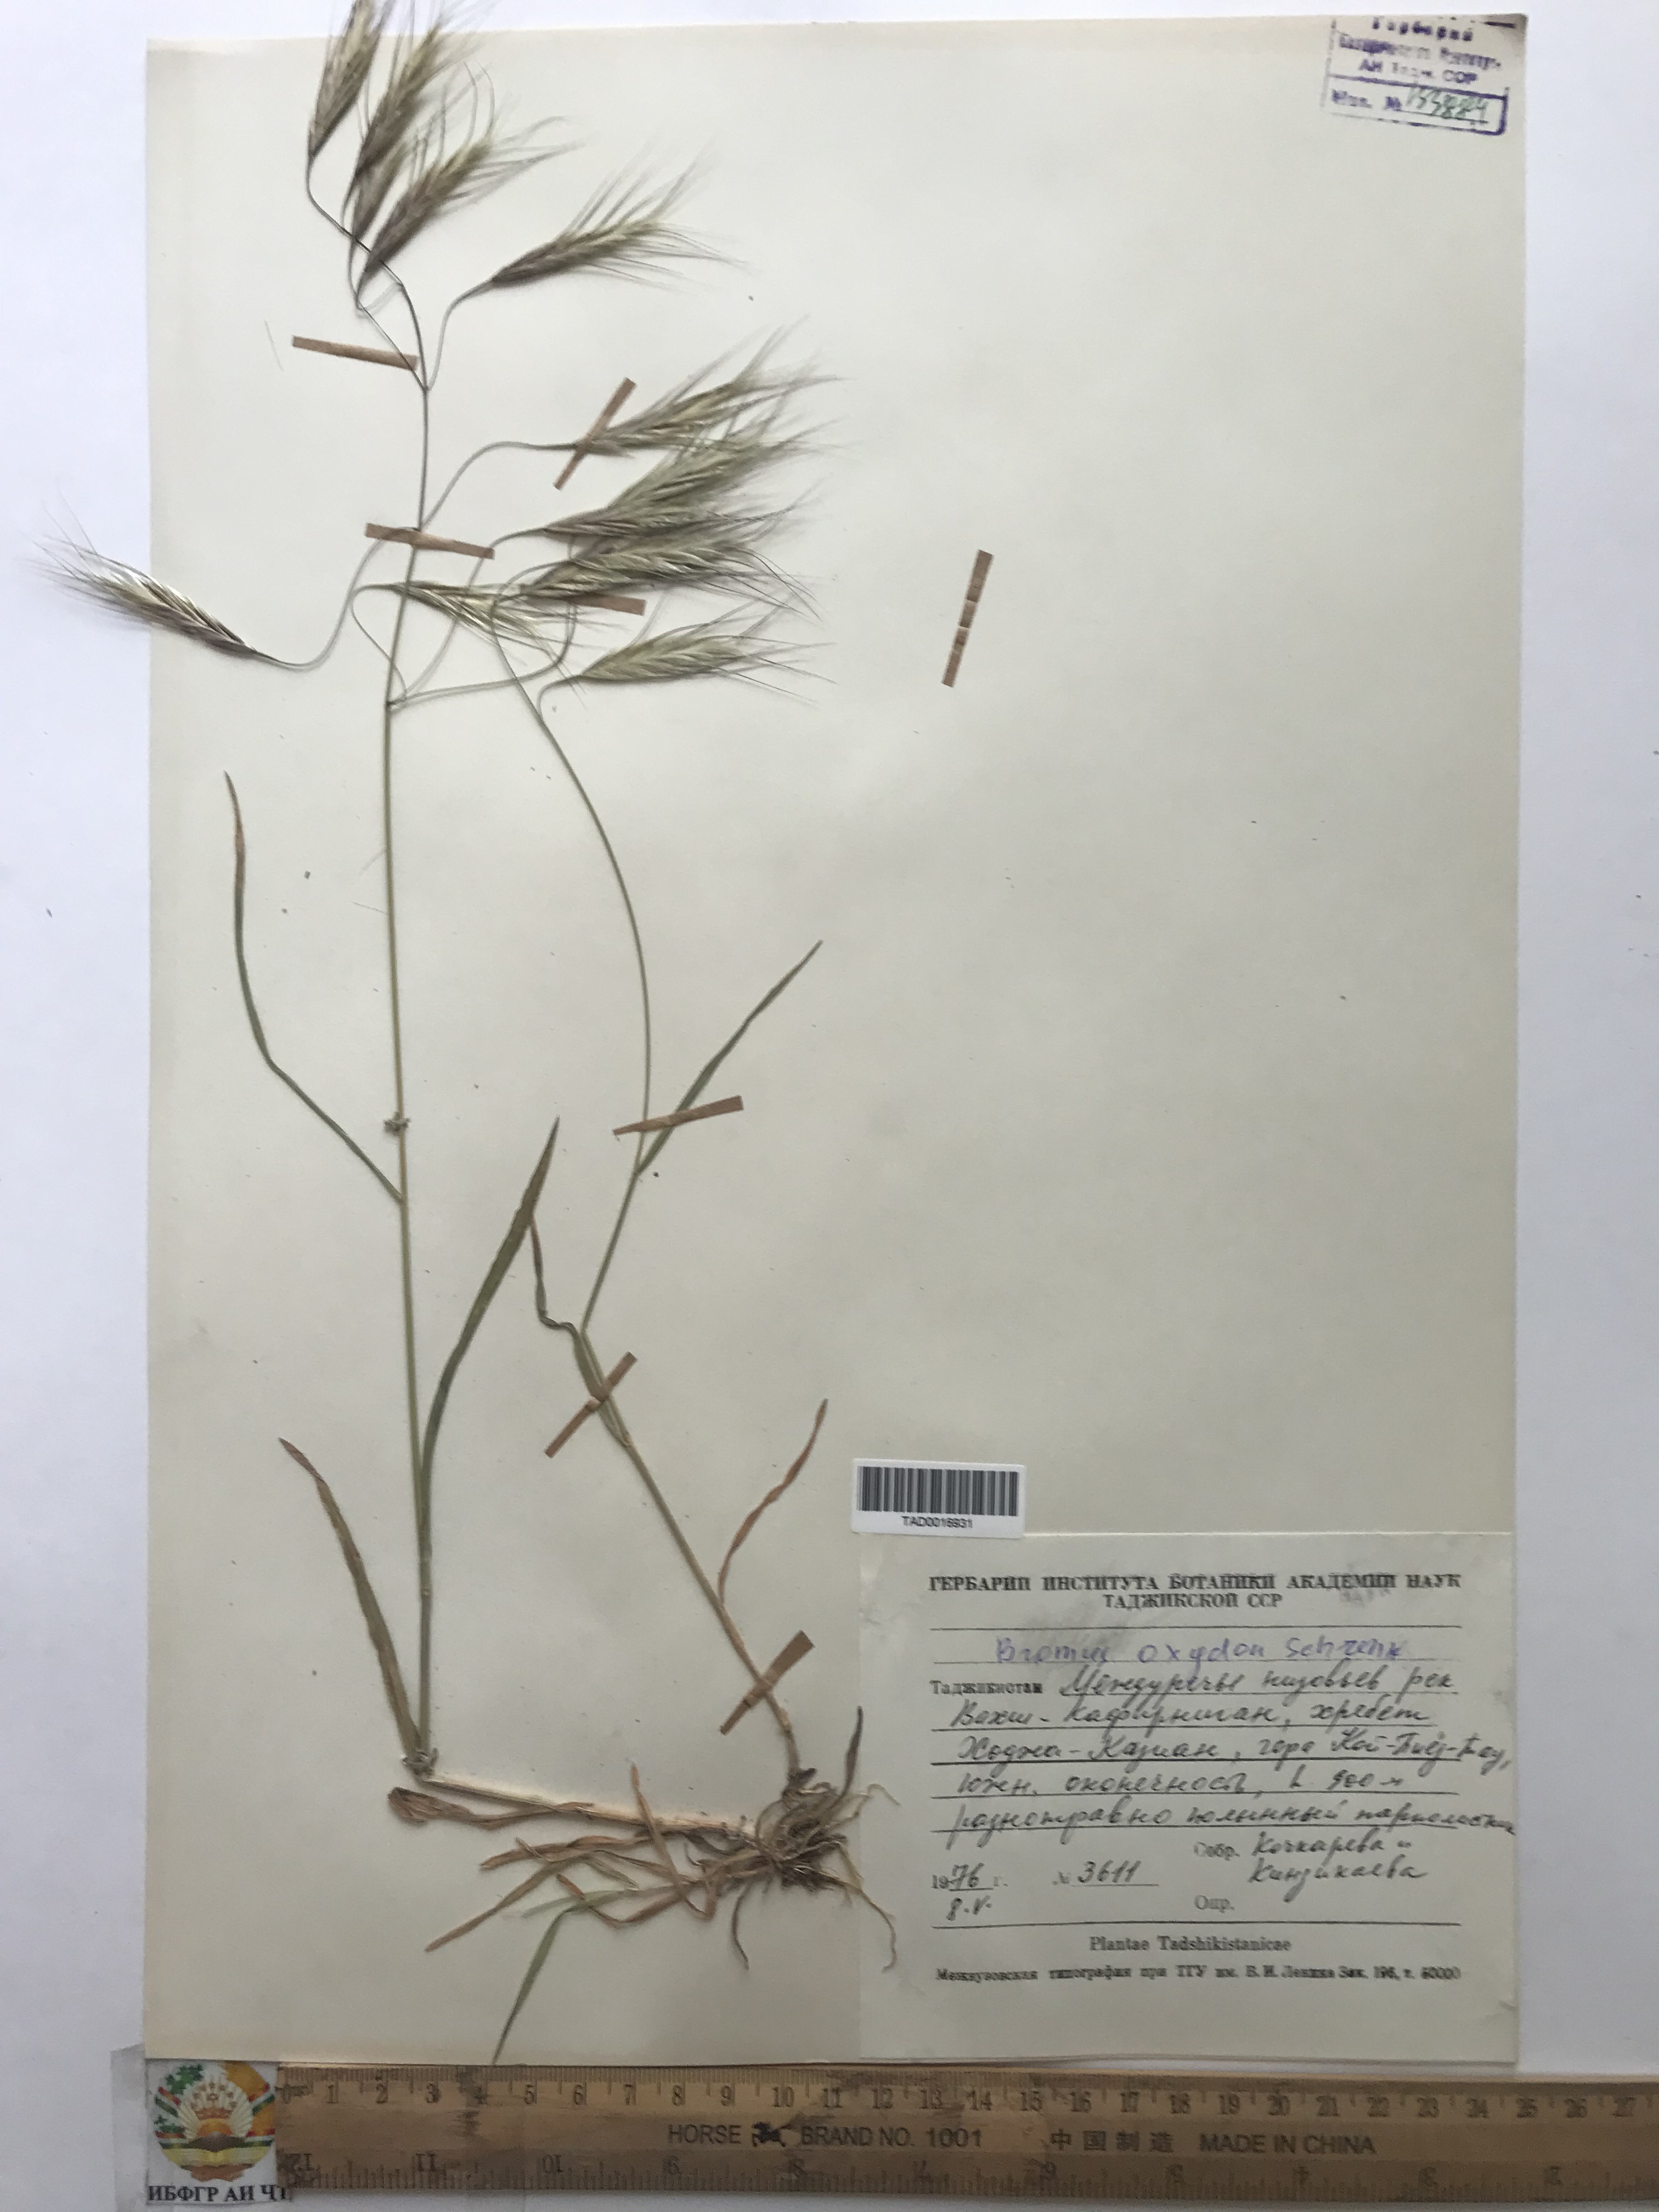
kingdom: Plantae
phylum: Tracheophyta
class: Liliopsida
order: Poales
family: Poaceae
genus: Bromus
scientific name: Bromus oxyodon
